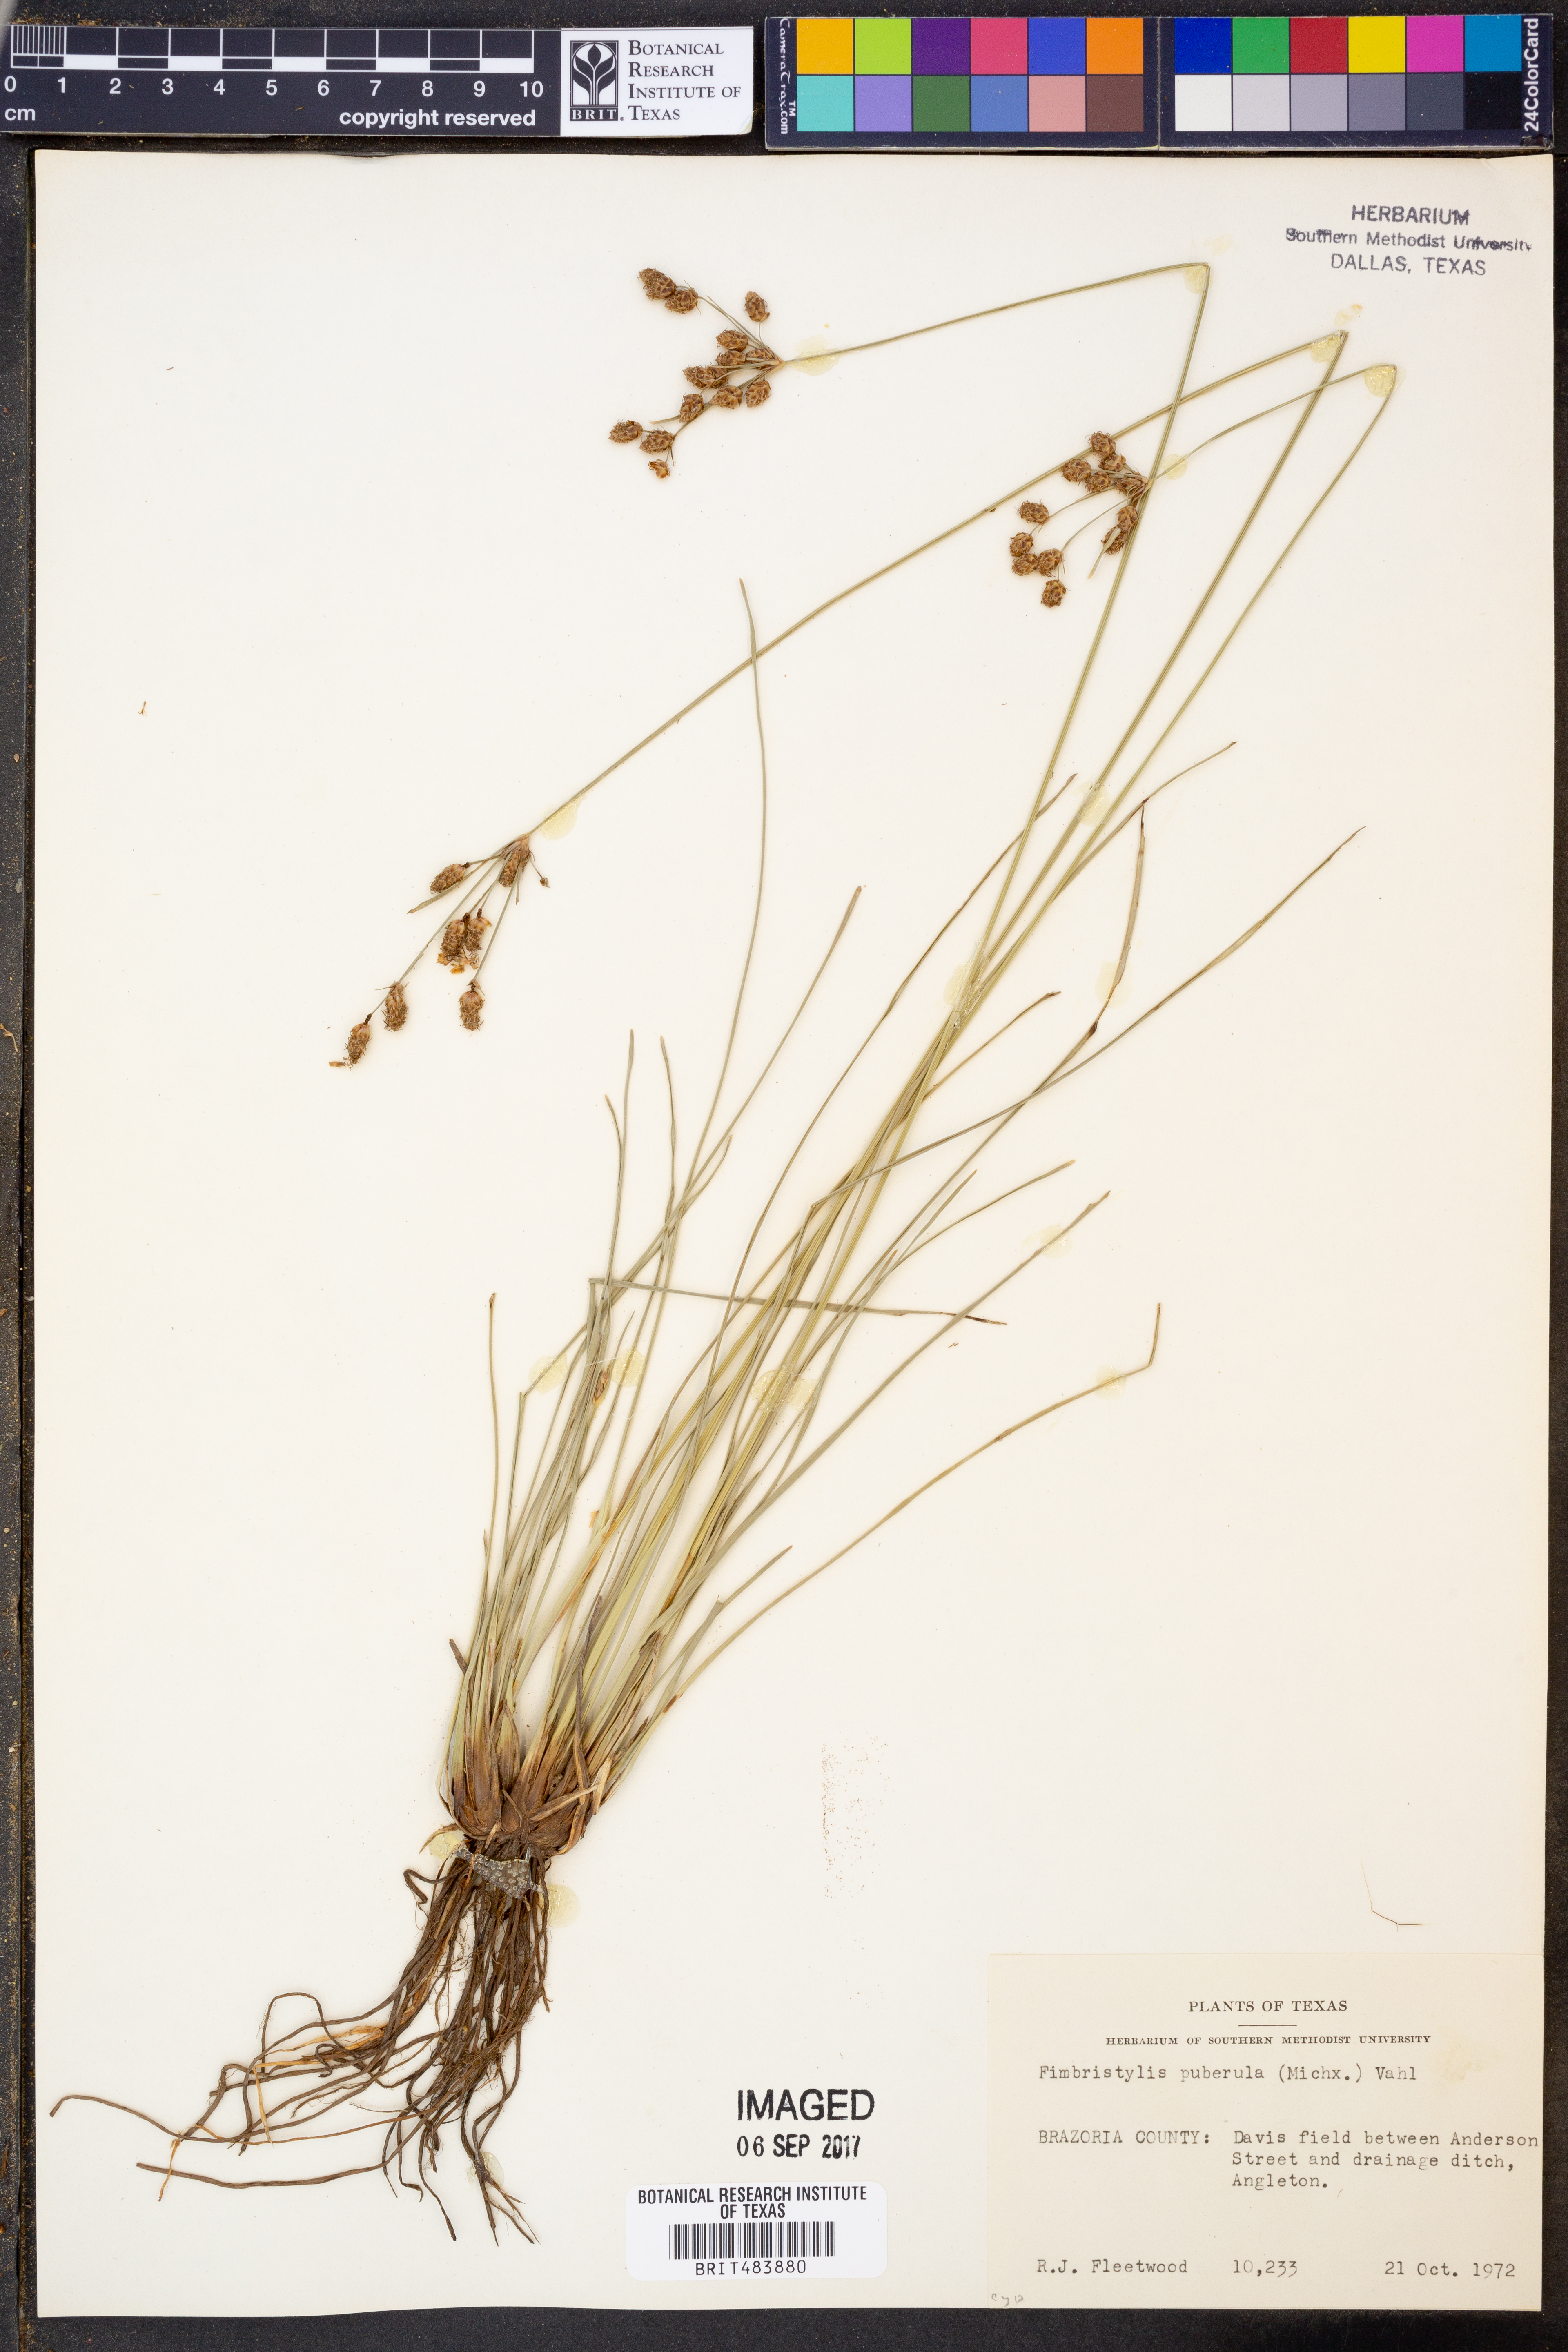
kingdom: Plantae
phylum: Tracheophyta
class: Liliopsida
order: Poales
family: Cyperaceae
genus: Fimbristylis
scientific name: Fimbristylis puberula
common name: Hairy fimbristylis
